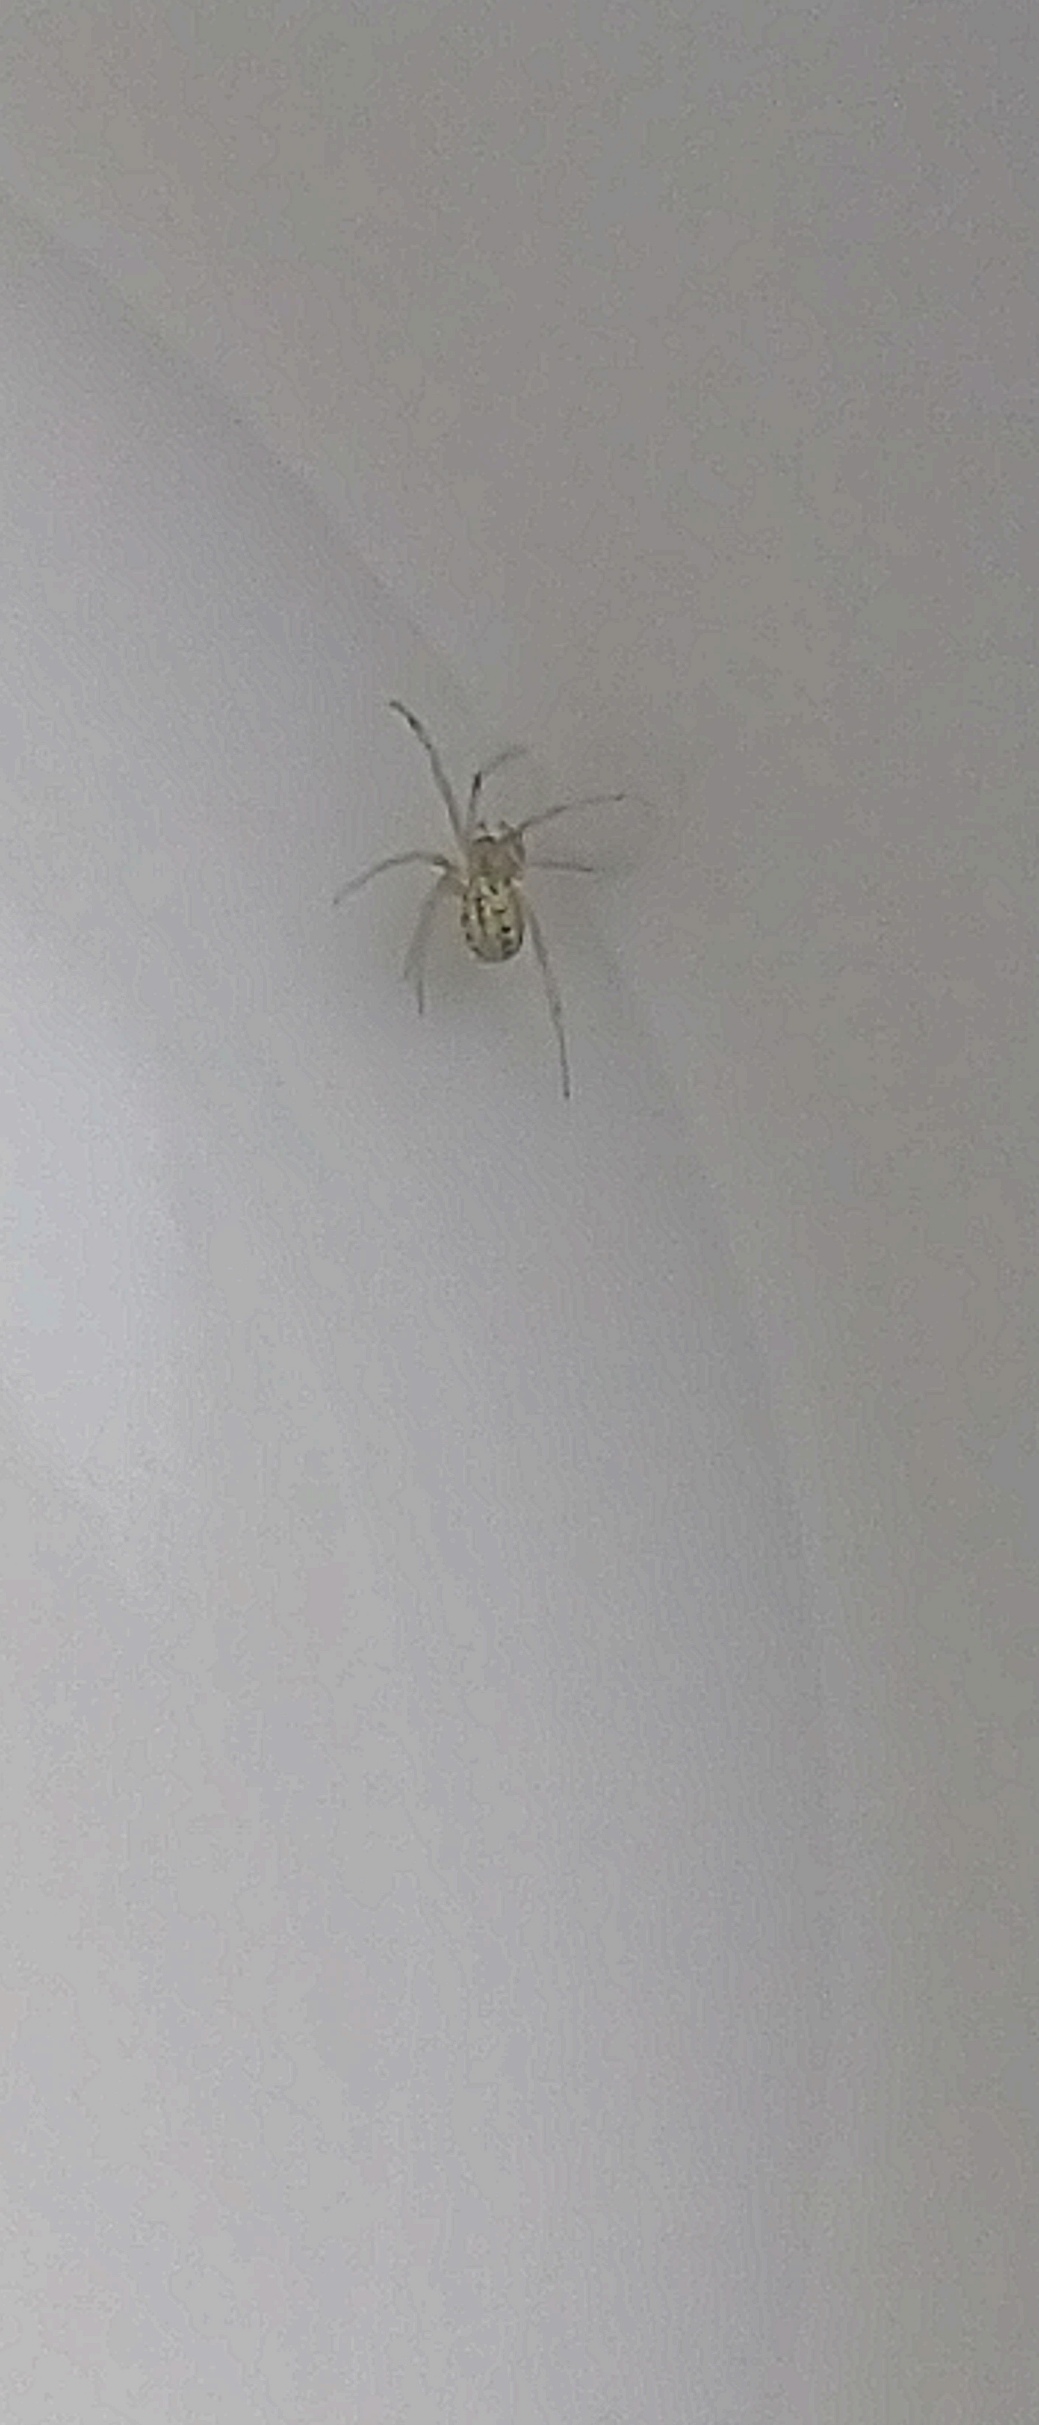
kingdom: Animalia
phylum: Arthropoda
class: Arachnida
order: Araneae
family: Theridiidae
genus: Enoplognatha
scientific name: Enoplognatha
